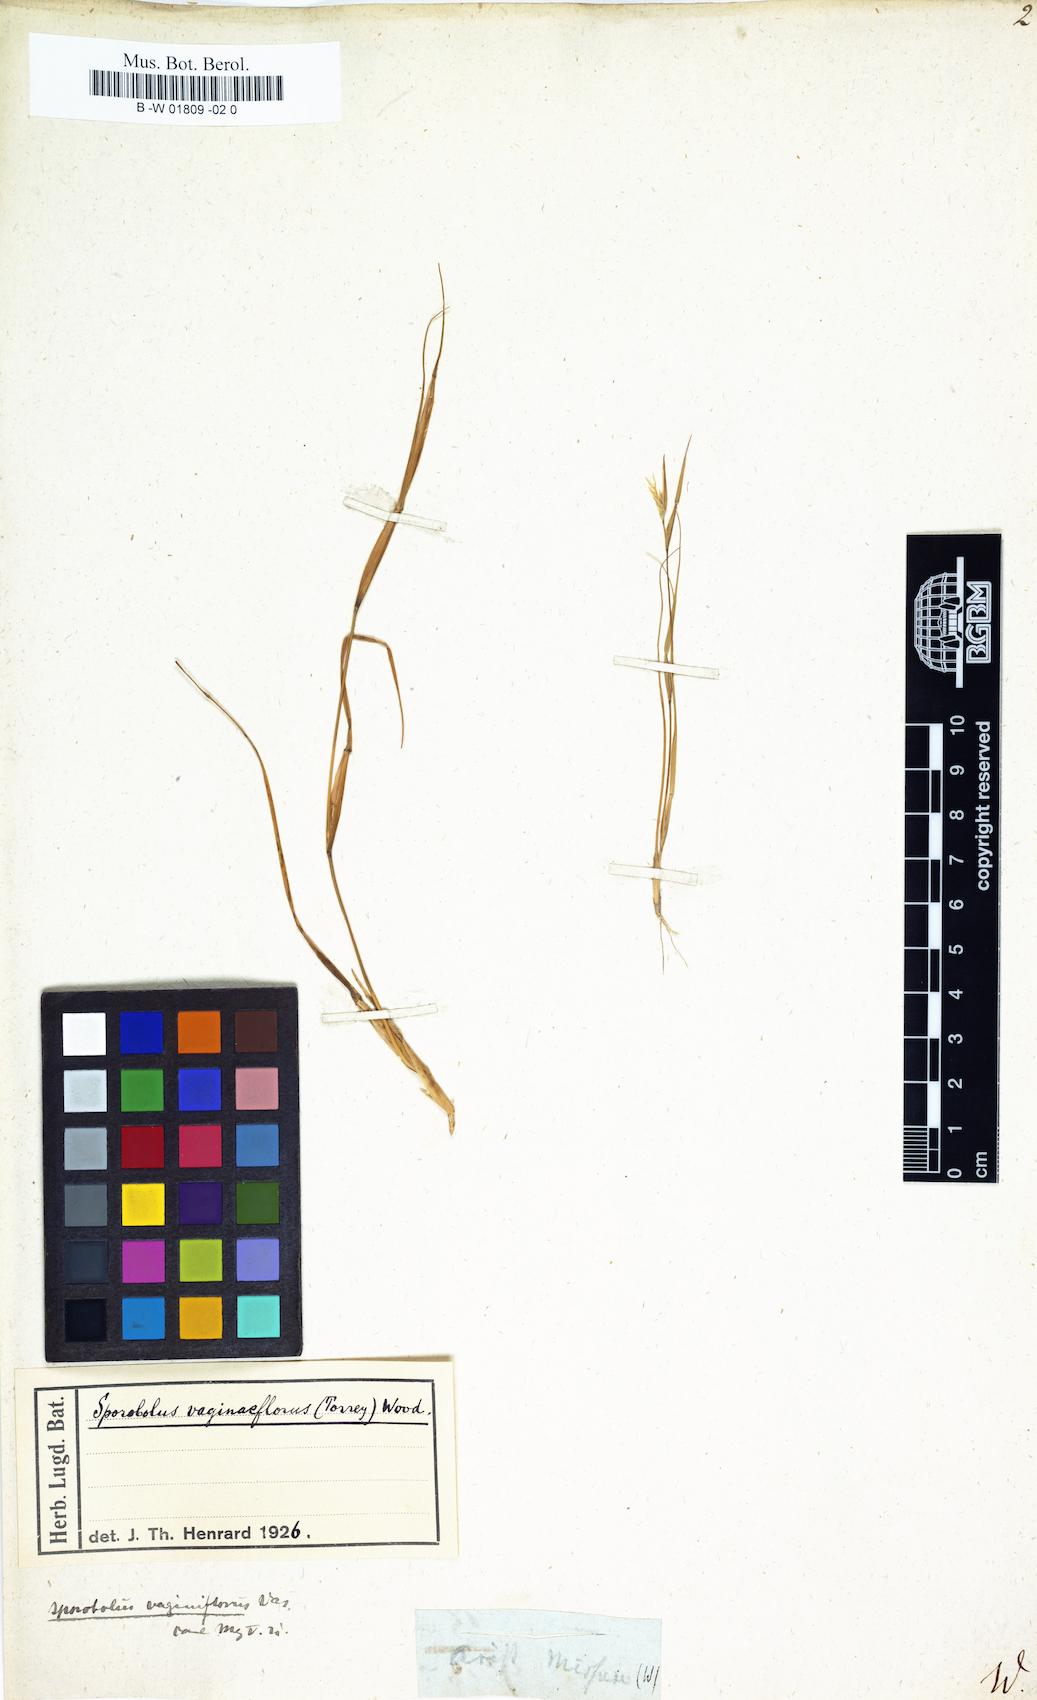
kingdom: Plantae
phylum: Tracheophyta
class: Liliopsida
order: Poales
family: Poaceae
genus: Aristida
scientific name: Aristida oligantha
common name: Few-flowered aristida
